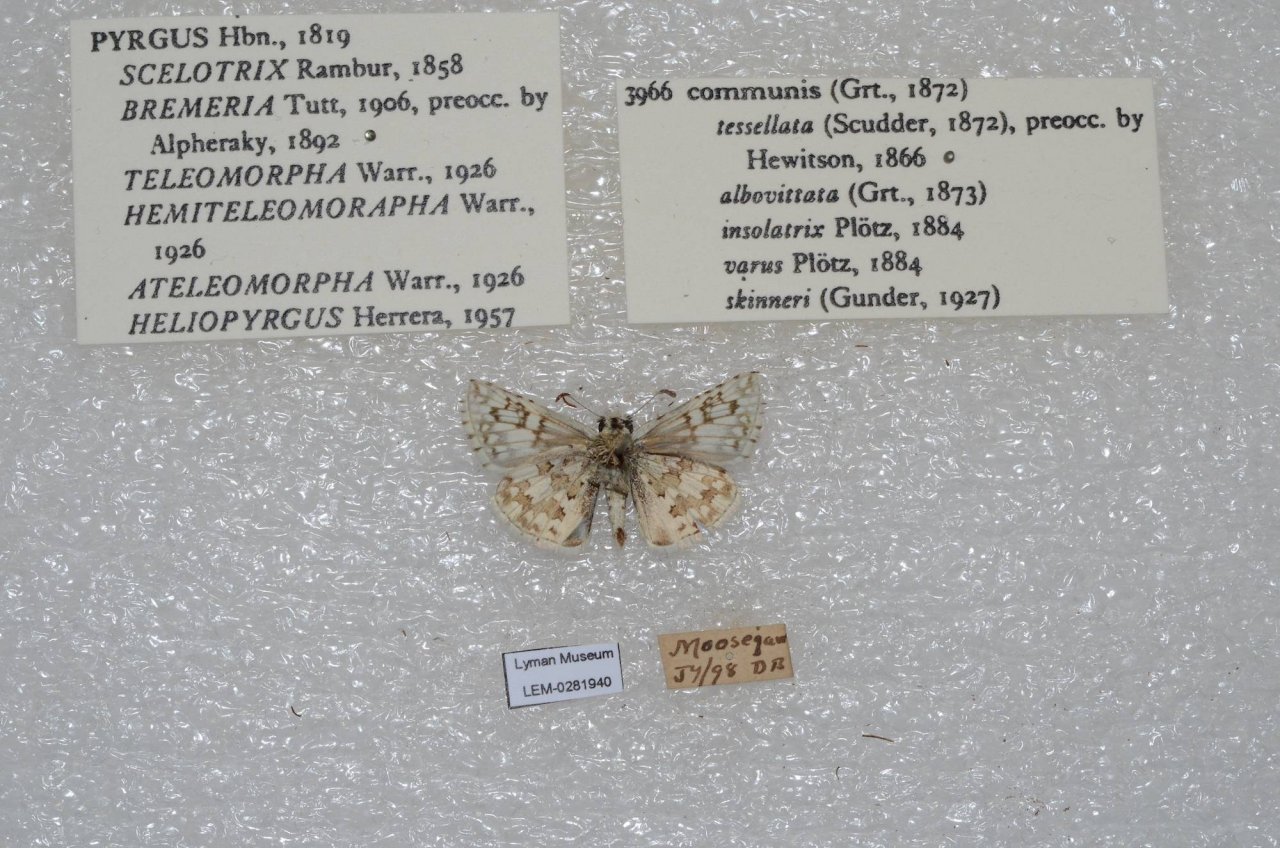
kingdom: Animalia
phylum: Arthropoda
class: Insecta
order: Lepidoptera
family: Hesperiidae
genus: Pyrgus
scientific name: Pyrgus communis
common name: Common Checkered-Skipper
